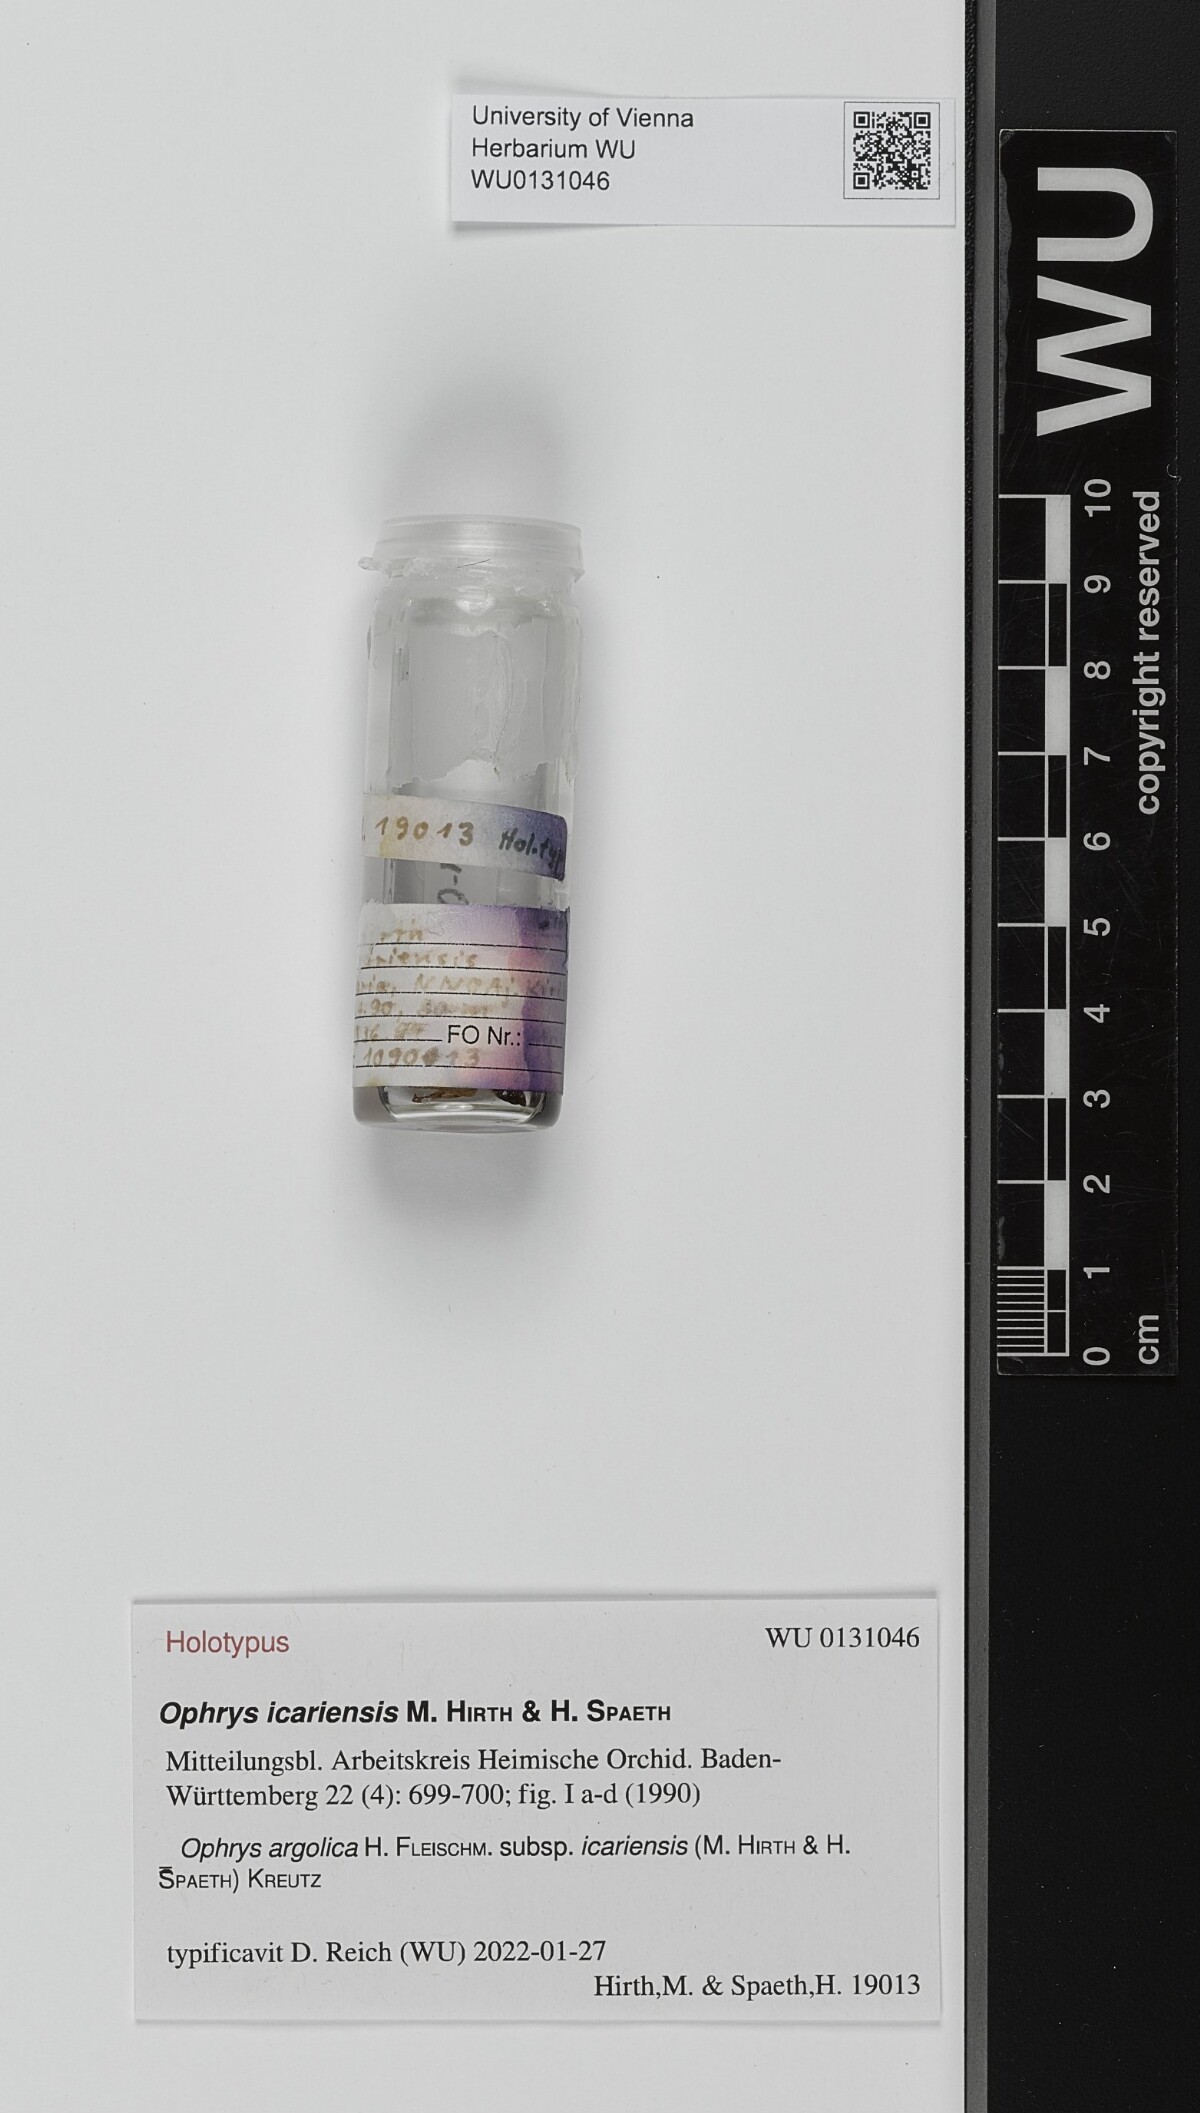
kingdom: Plantae
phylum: Tracheophyta
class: Liliopsida
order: Asparagales
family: Orchidaceae
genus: Ophrys
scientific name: Ophrys argolica
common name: Argolic ophrys
